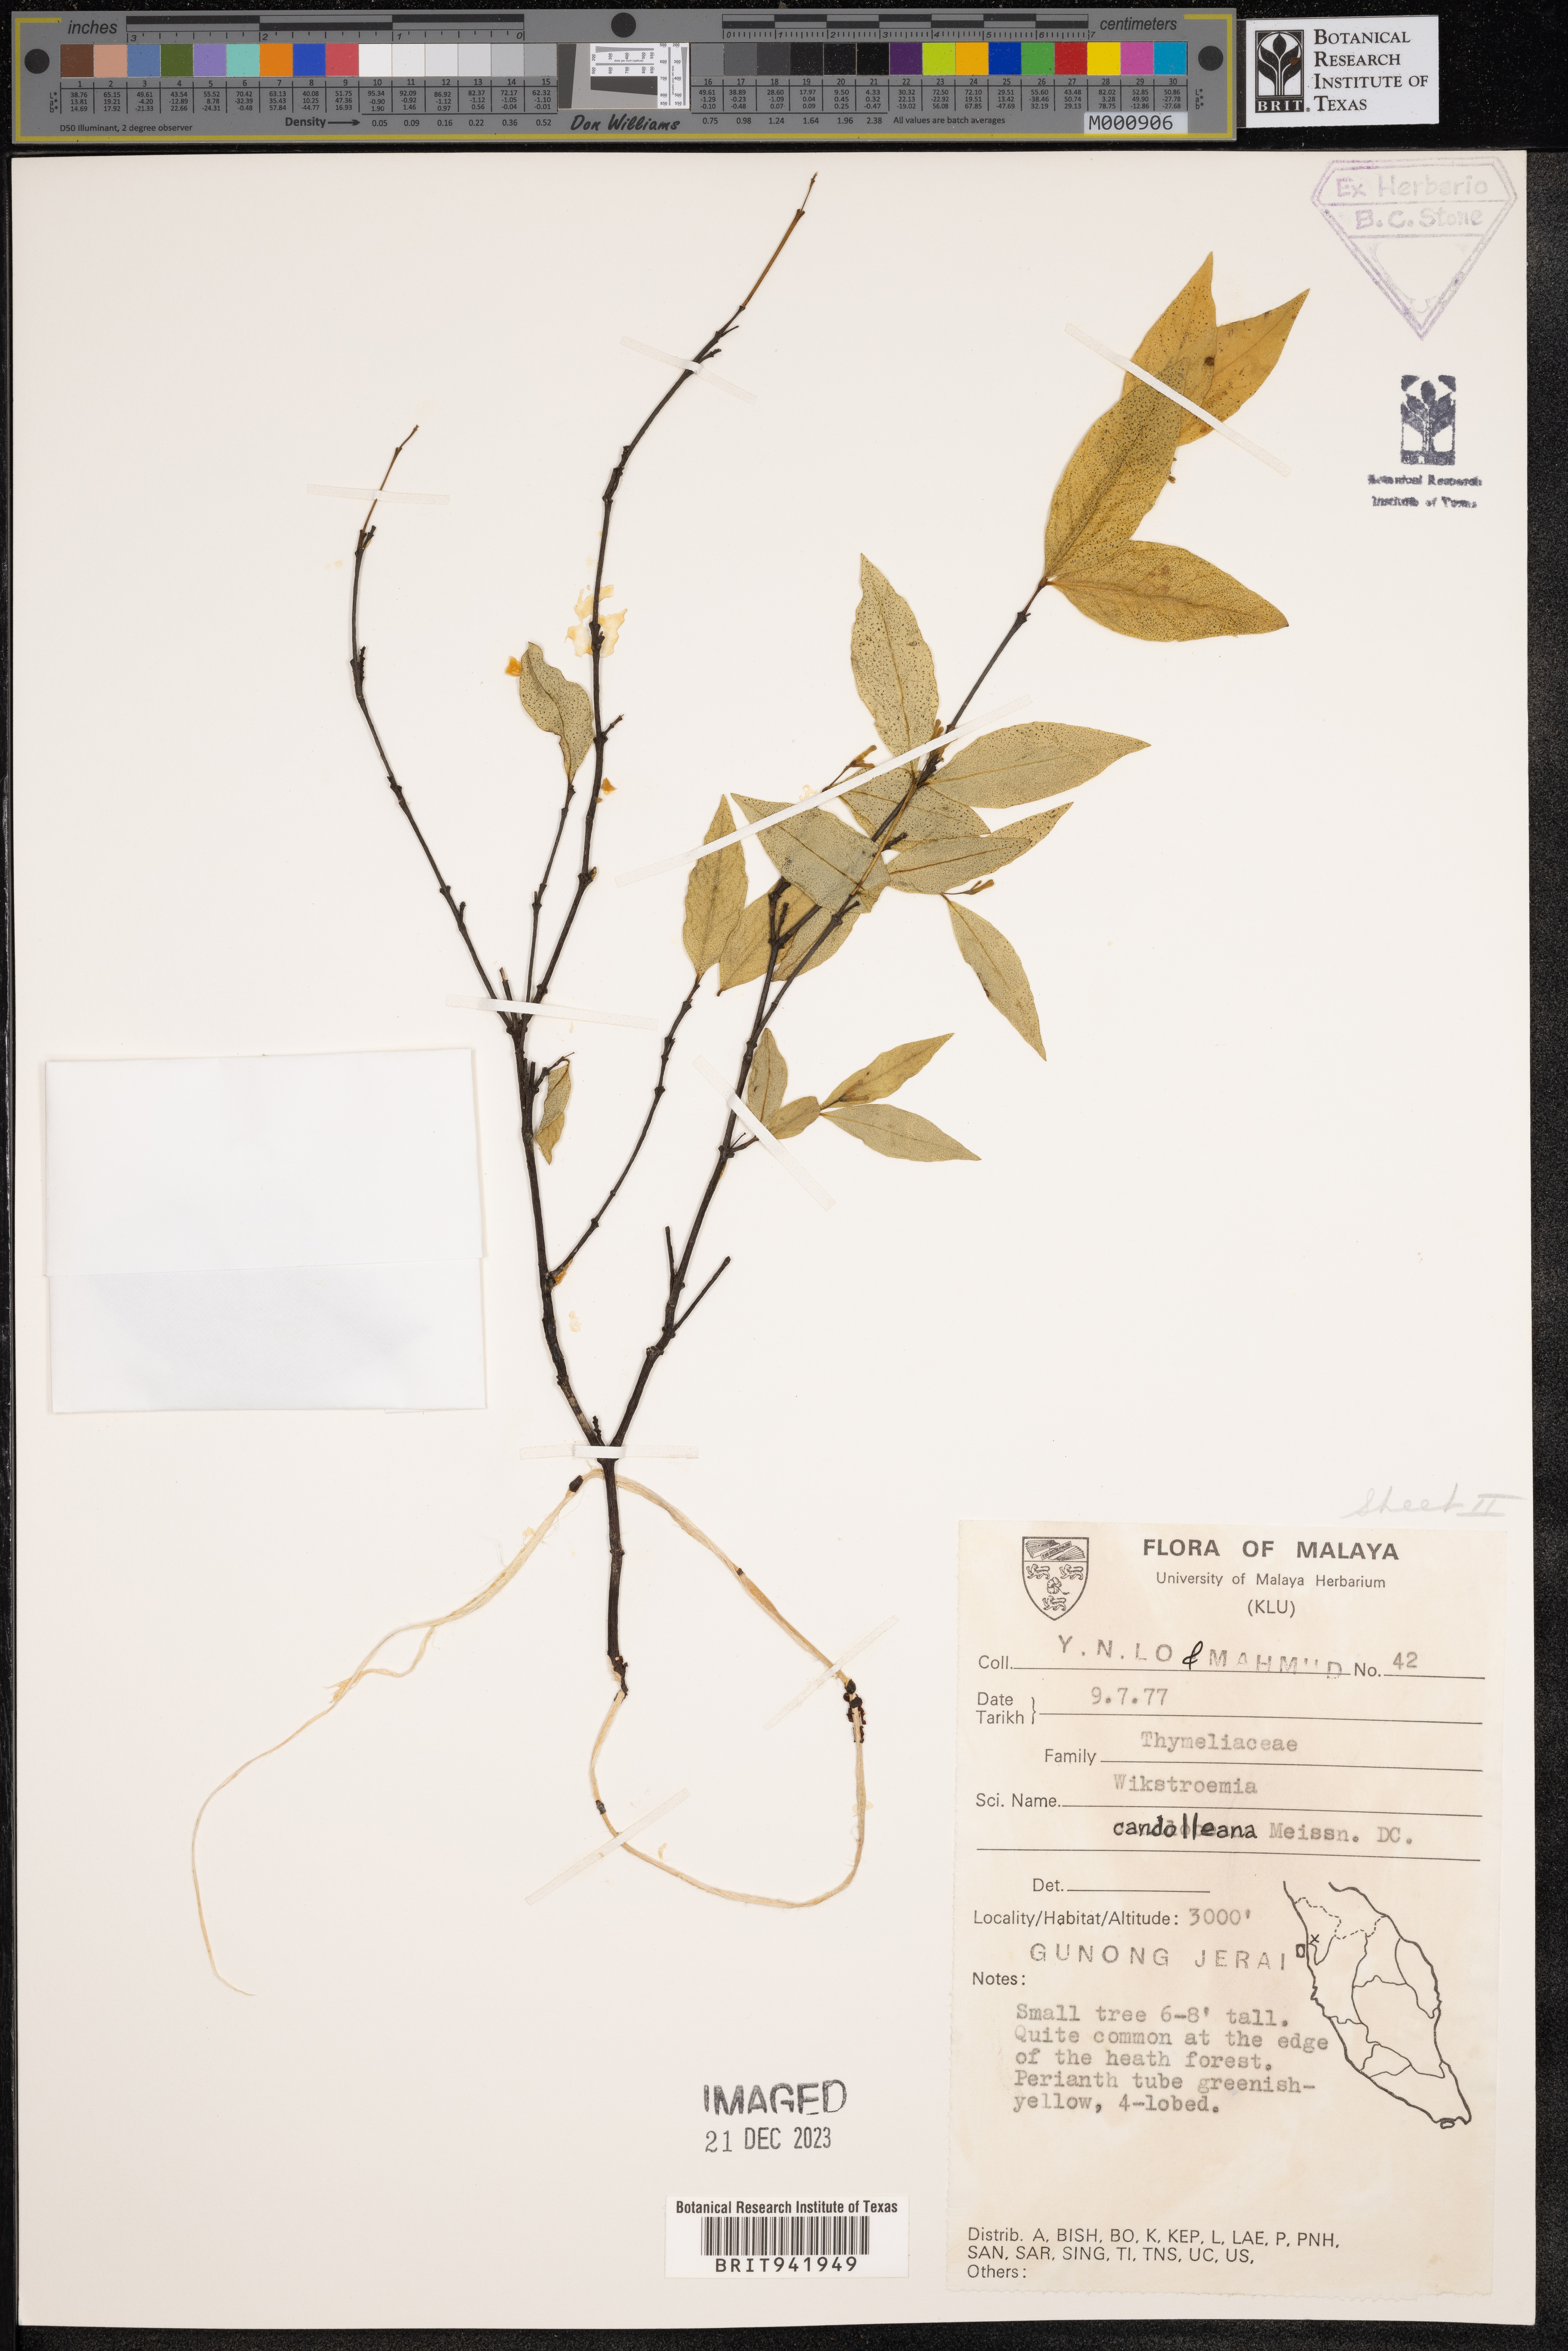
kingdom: Plantae
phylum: Tracheophyta
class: Magnoliopsida
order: Malvales
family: Thymelaeaceae
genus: Wikstroemia
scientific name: Wikstroemia
